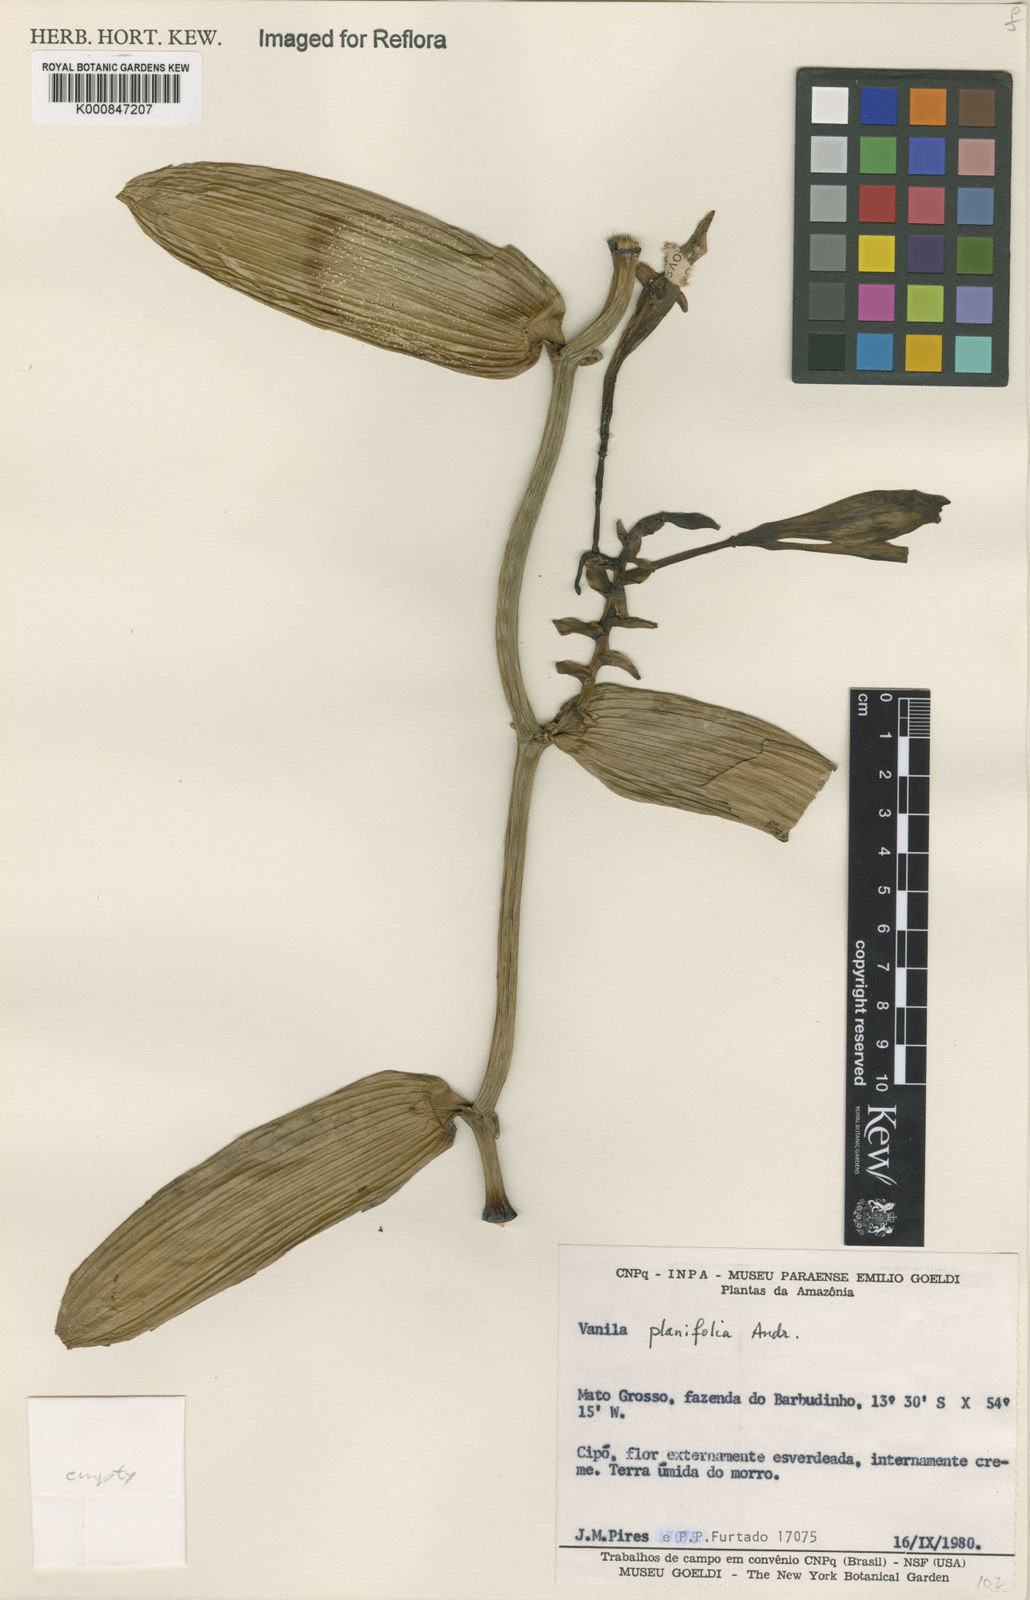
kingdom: Plantae
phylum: Tracheophyta
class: Liliopsida
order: Asparagales
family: Orchidaceae
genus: Vanilla
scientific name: Vanilla phaeantha
